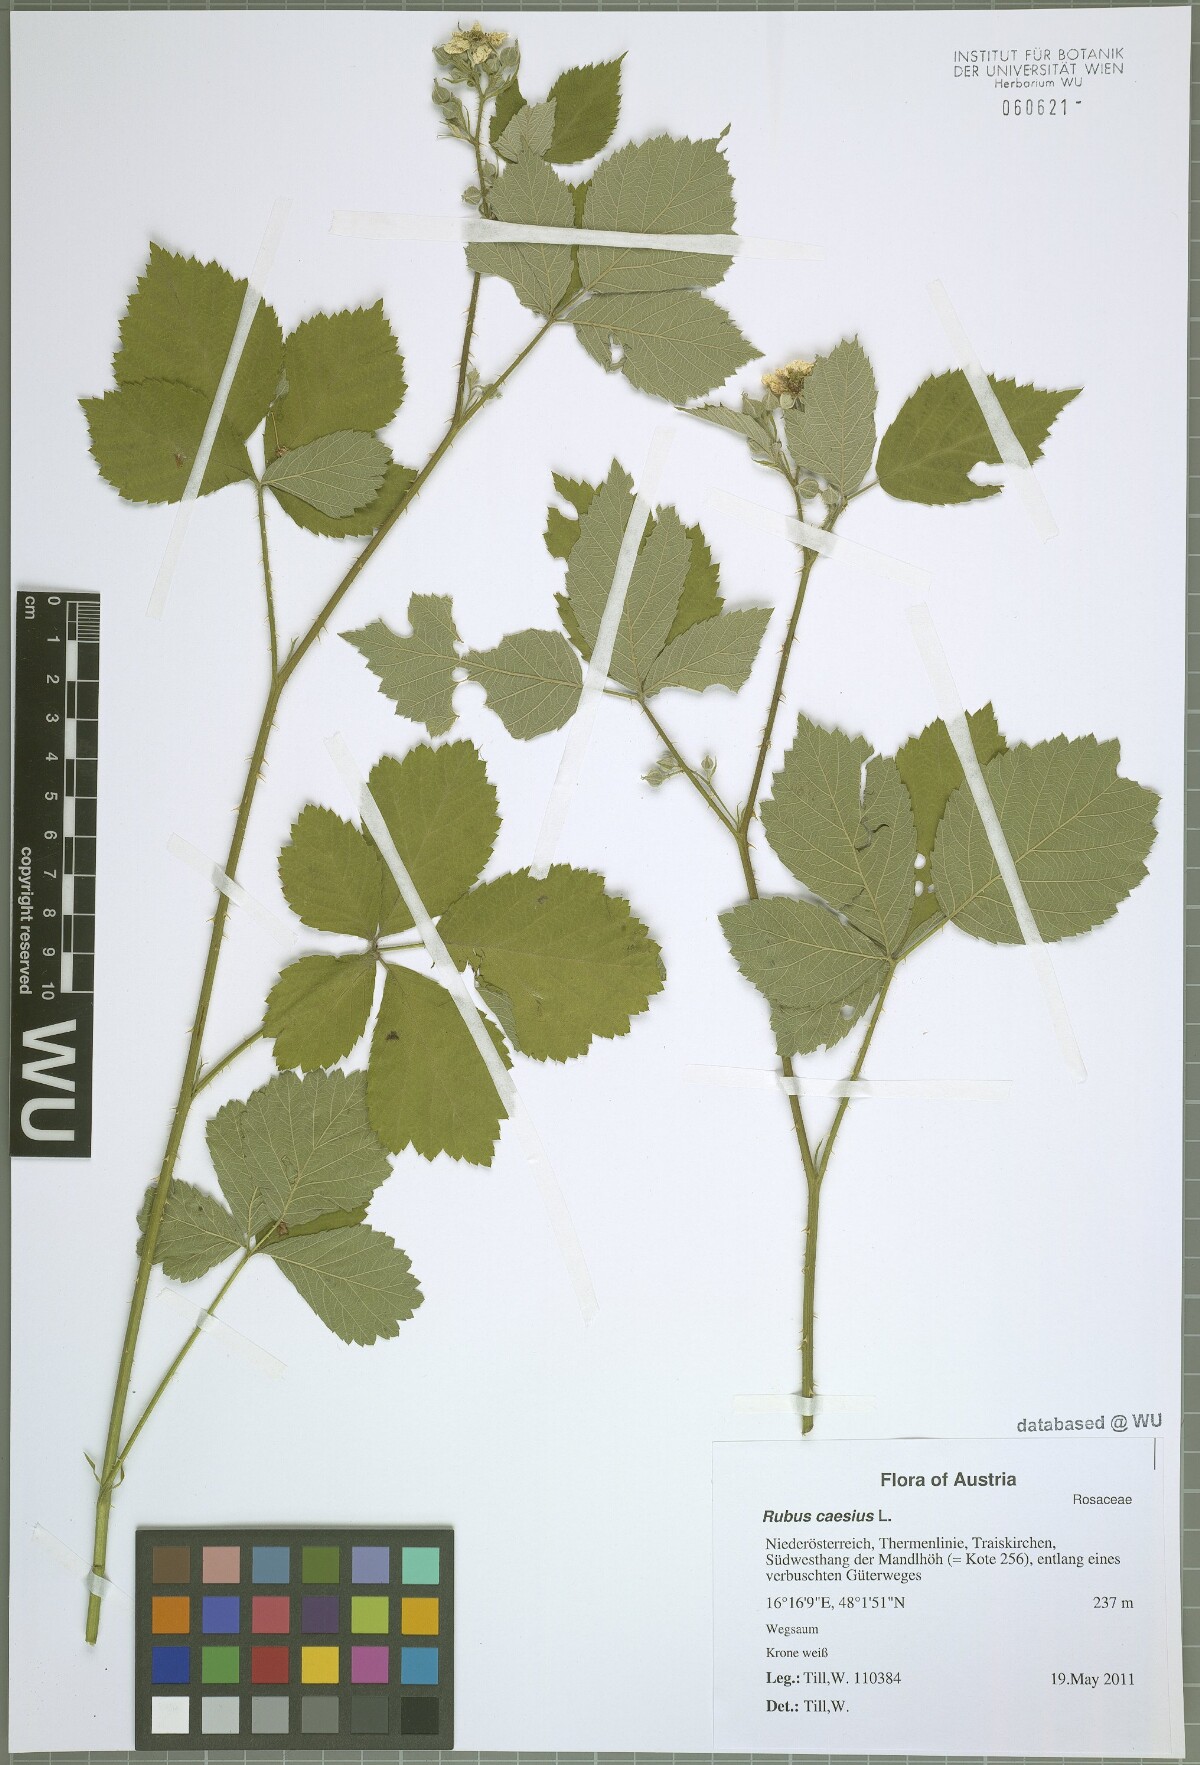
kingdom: Plantae
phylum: Tracheophyta
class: Magnoliopsida
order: Rosales
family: Rosaceae
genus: Rubus
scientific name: Rubus holosericeus
